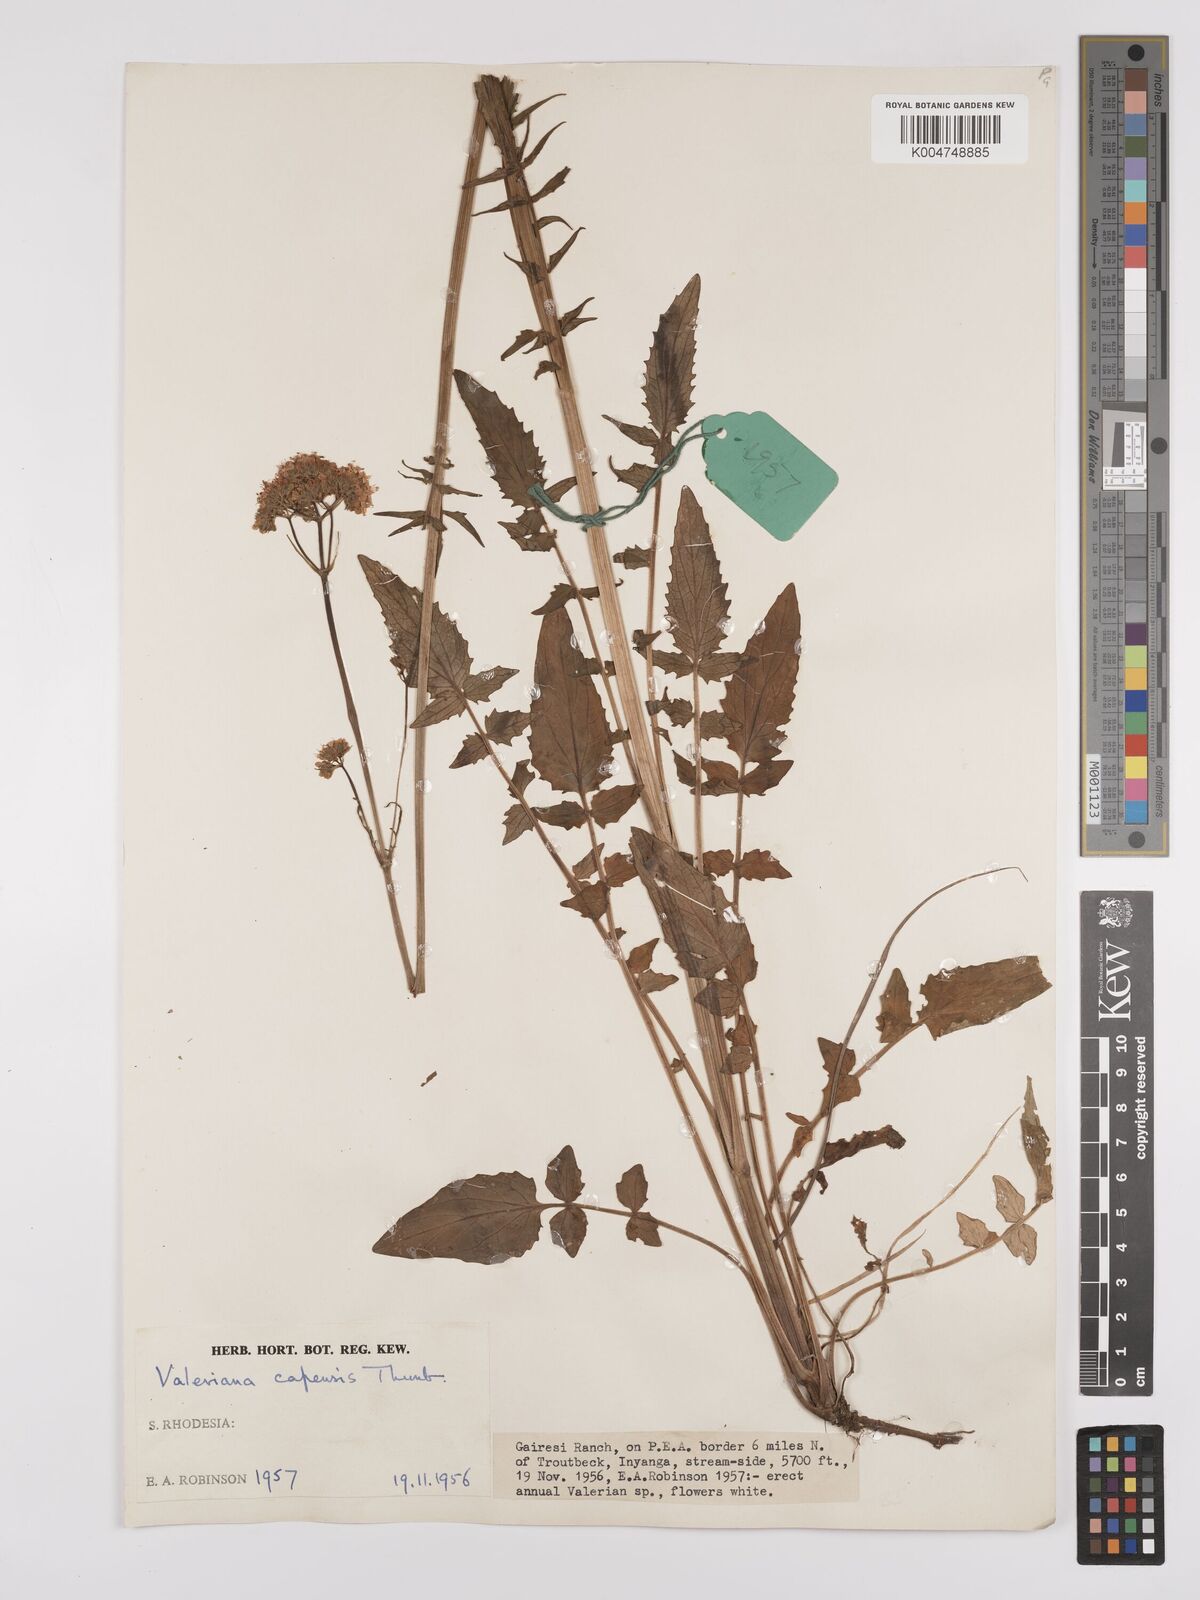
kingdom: Plantae
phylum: Tracheophyta
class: Magnoliopsida
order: Dipsacales
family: Caprifoliaceae
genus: Valeriana
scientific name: Valeriana capensis
